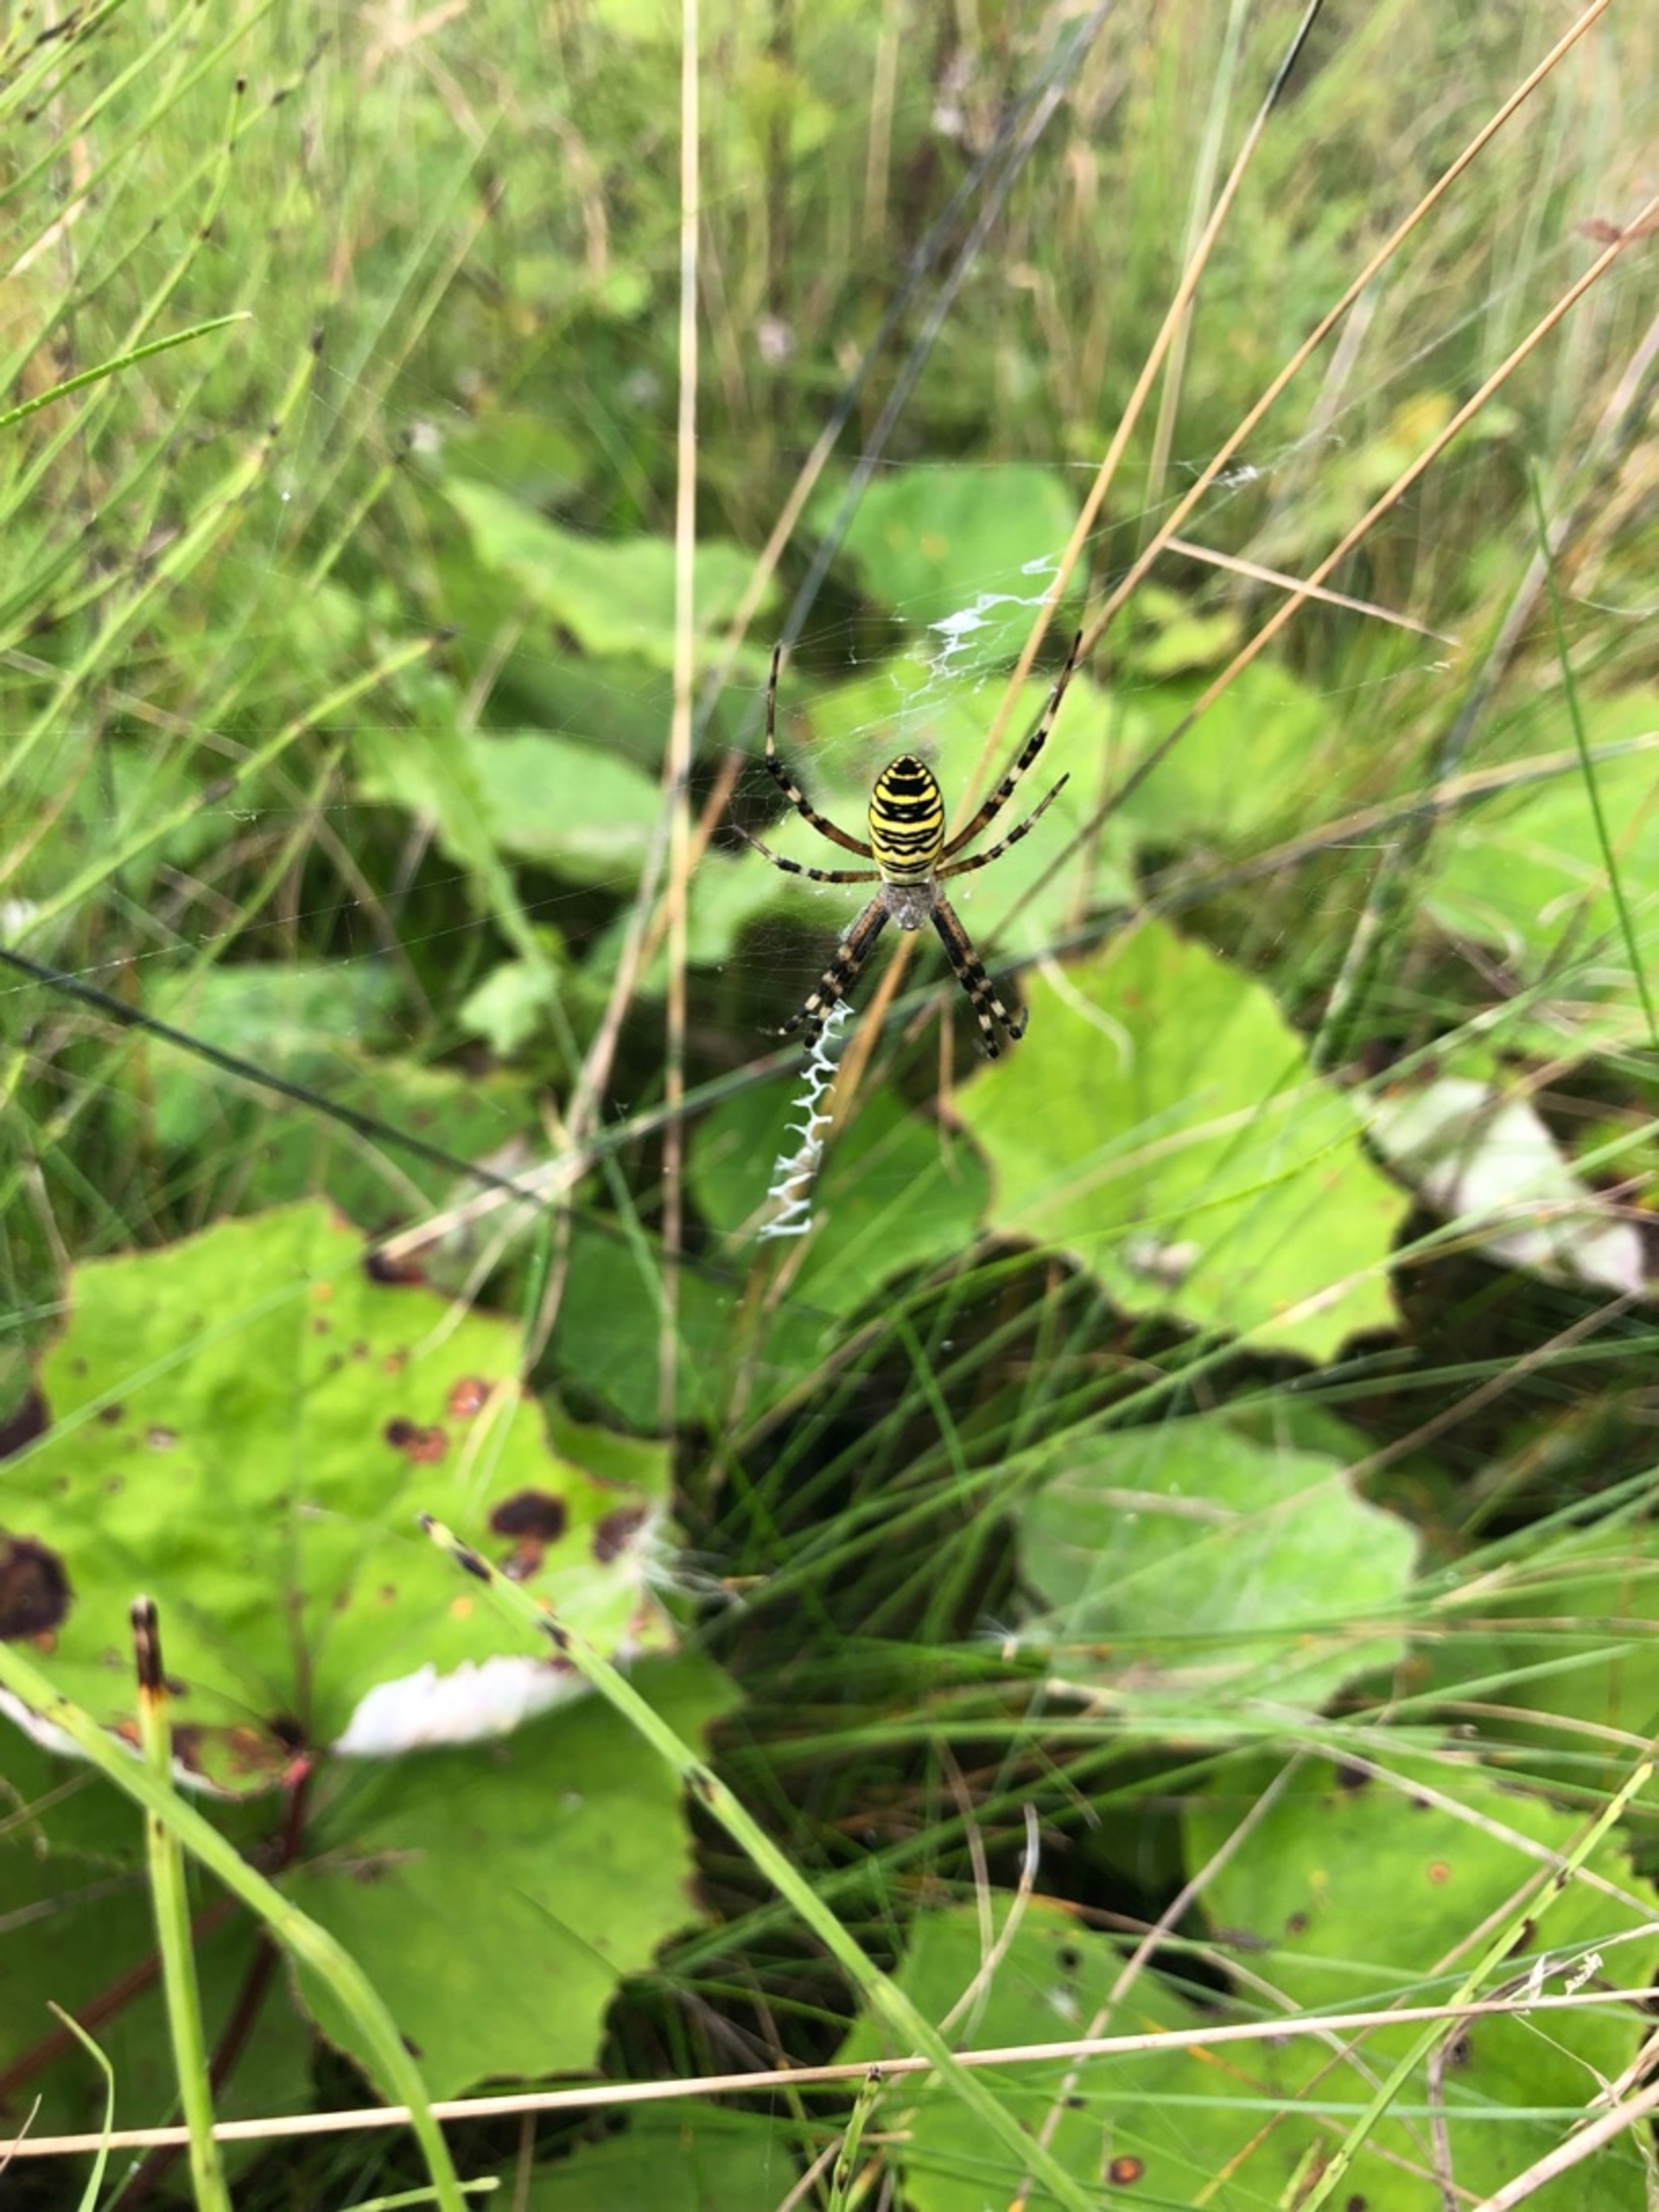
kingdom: Animalia
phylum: Arthropoda
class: Arachnida
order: Araneae
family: Araneidae
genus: Argiope
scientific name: Argiope bruennichi
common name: Hvepseedderkop
